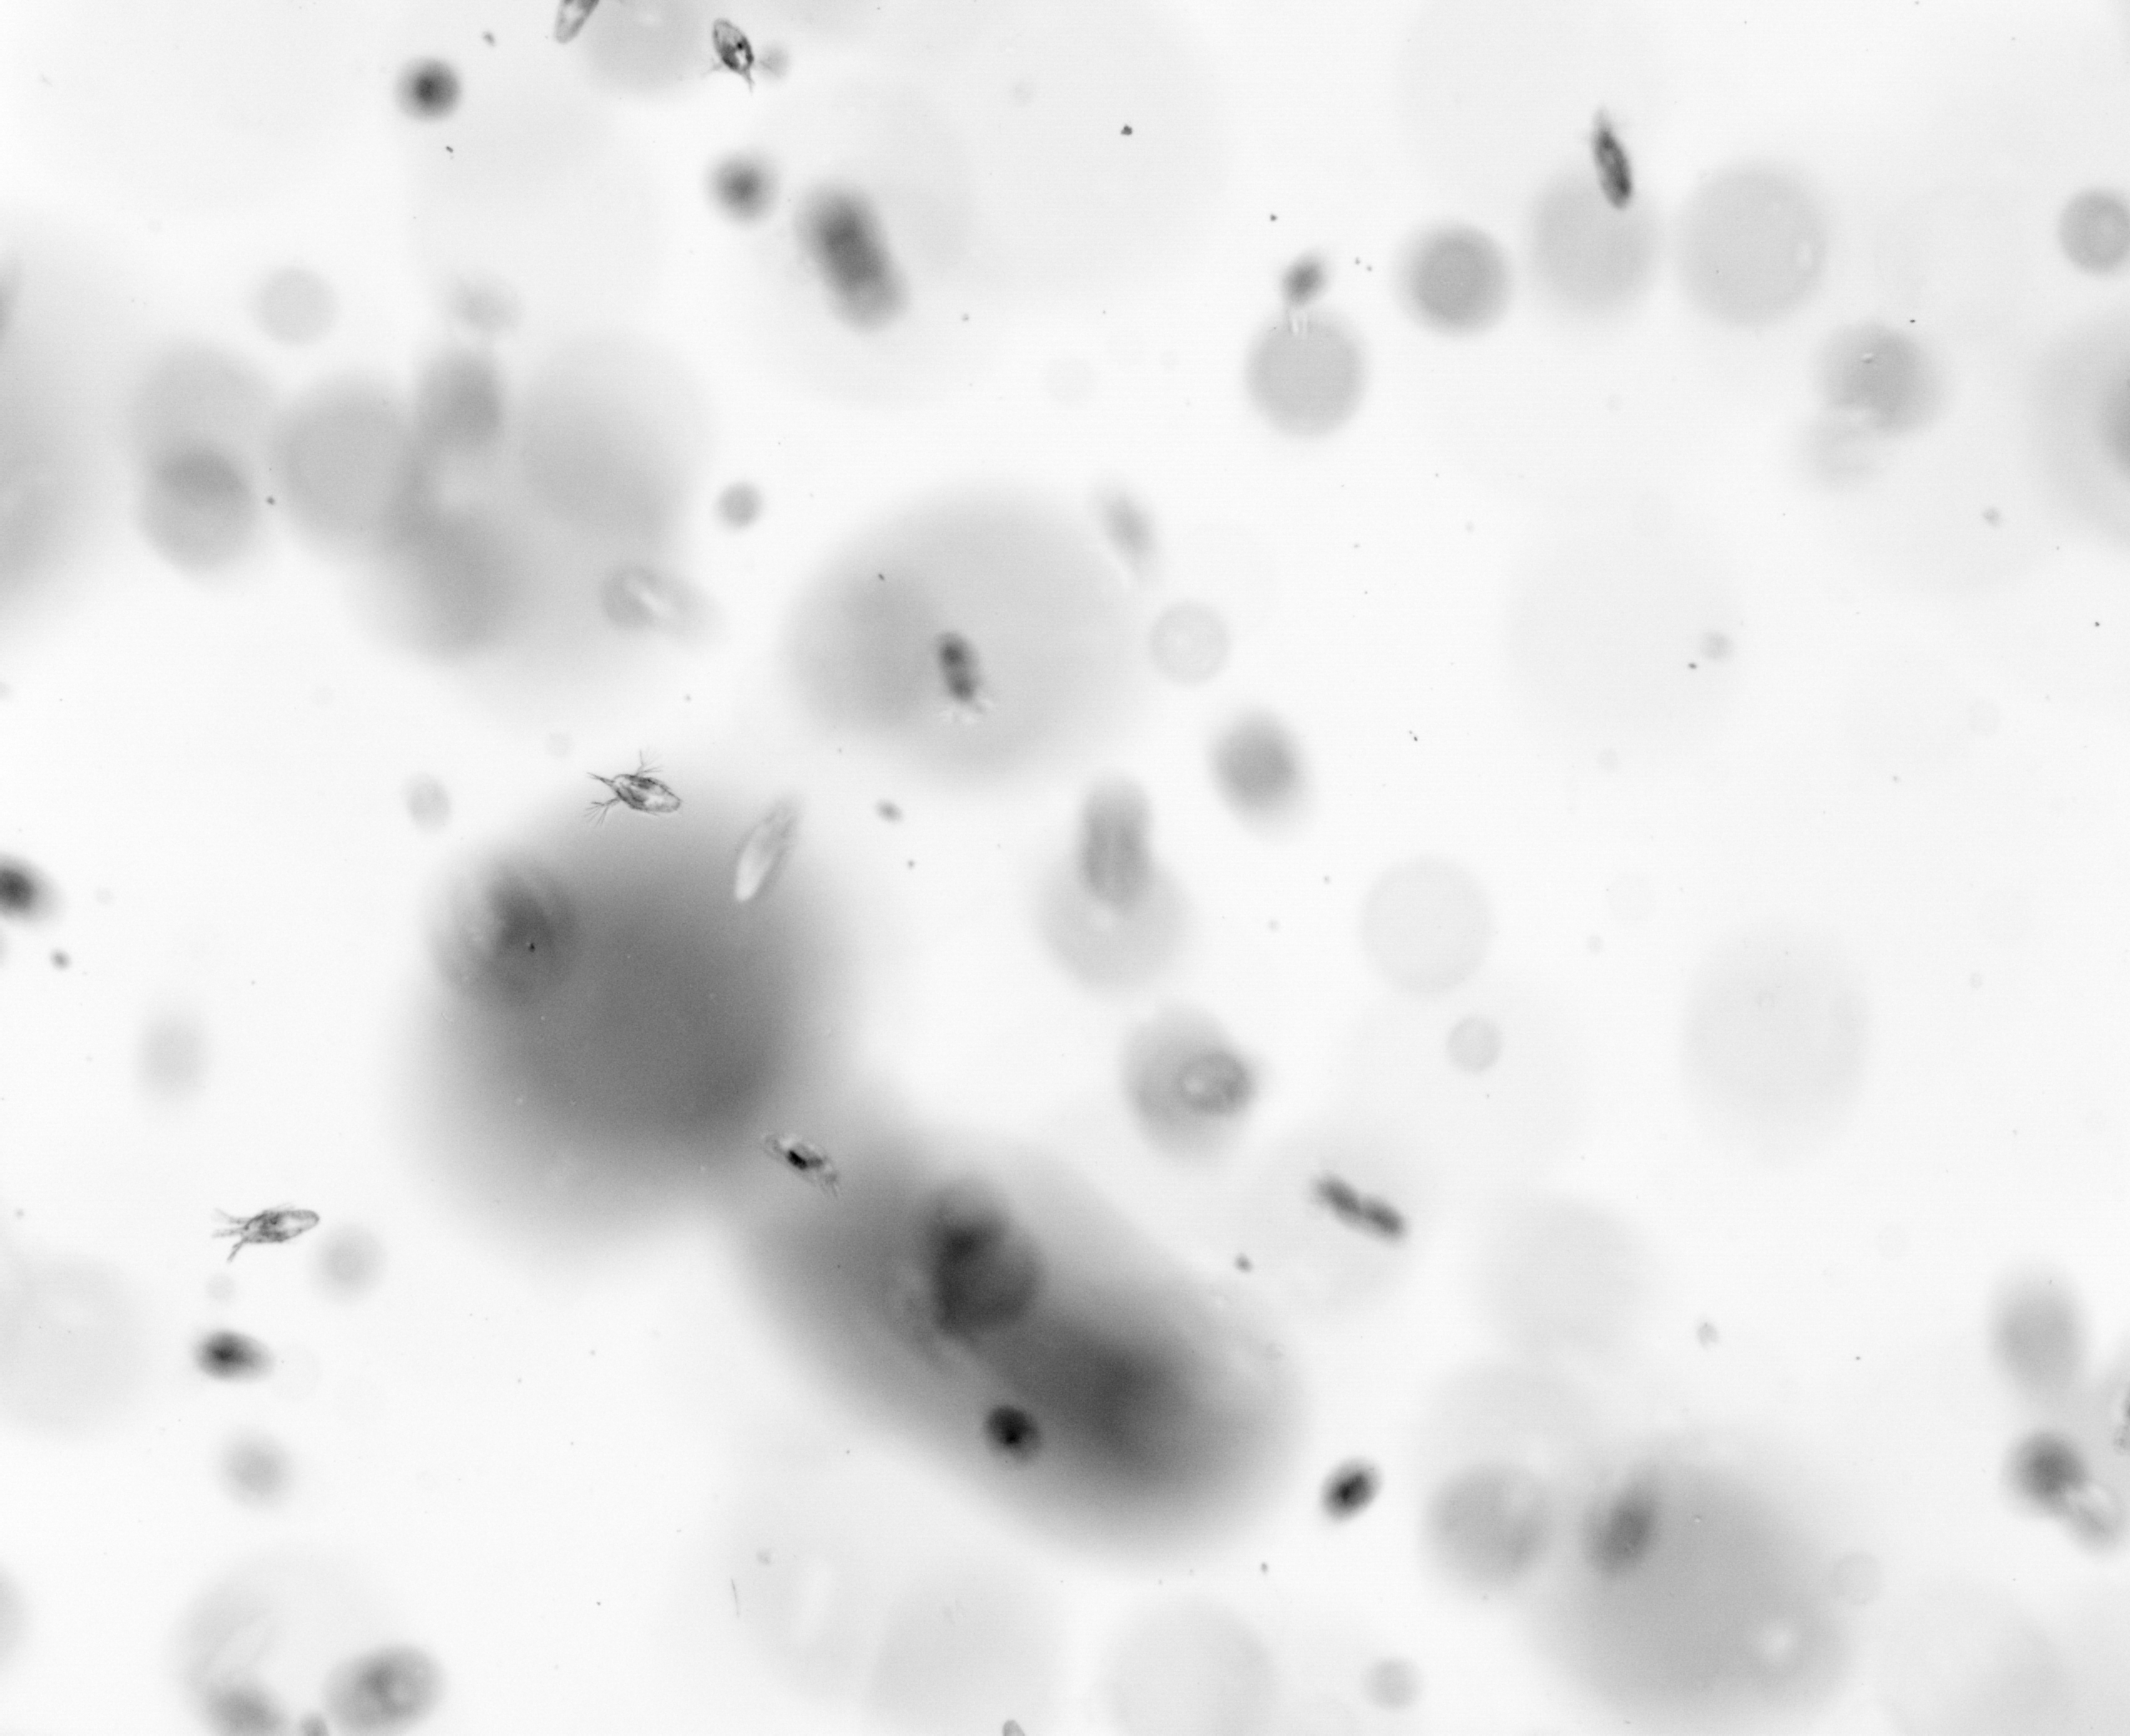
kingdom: Animalia
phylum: Arthropoda
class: Copepoda
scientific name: Copepoda
